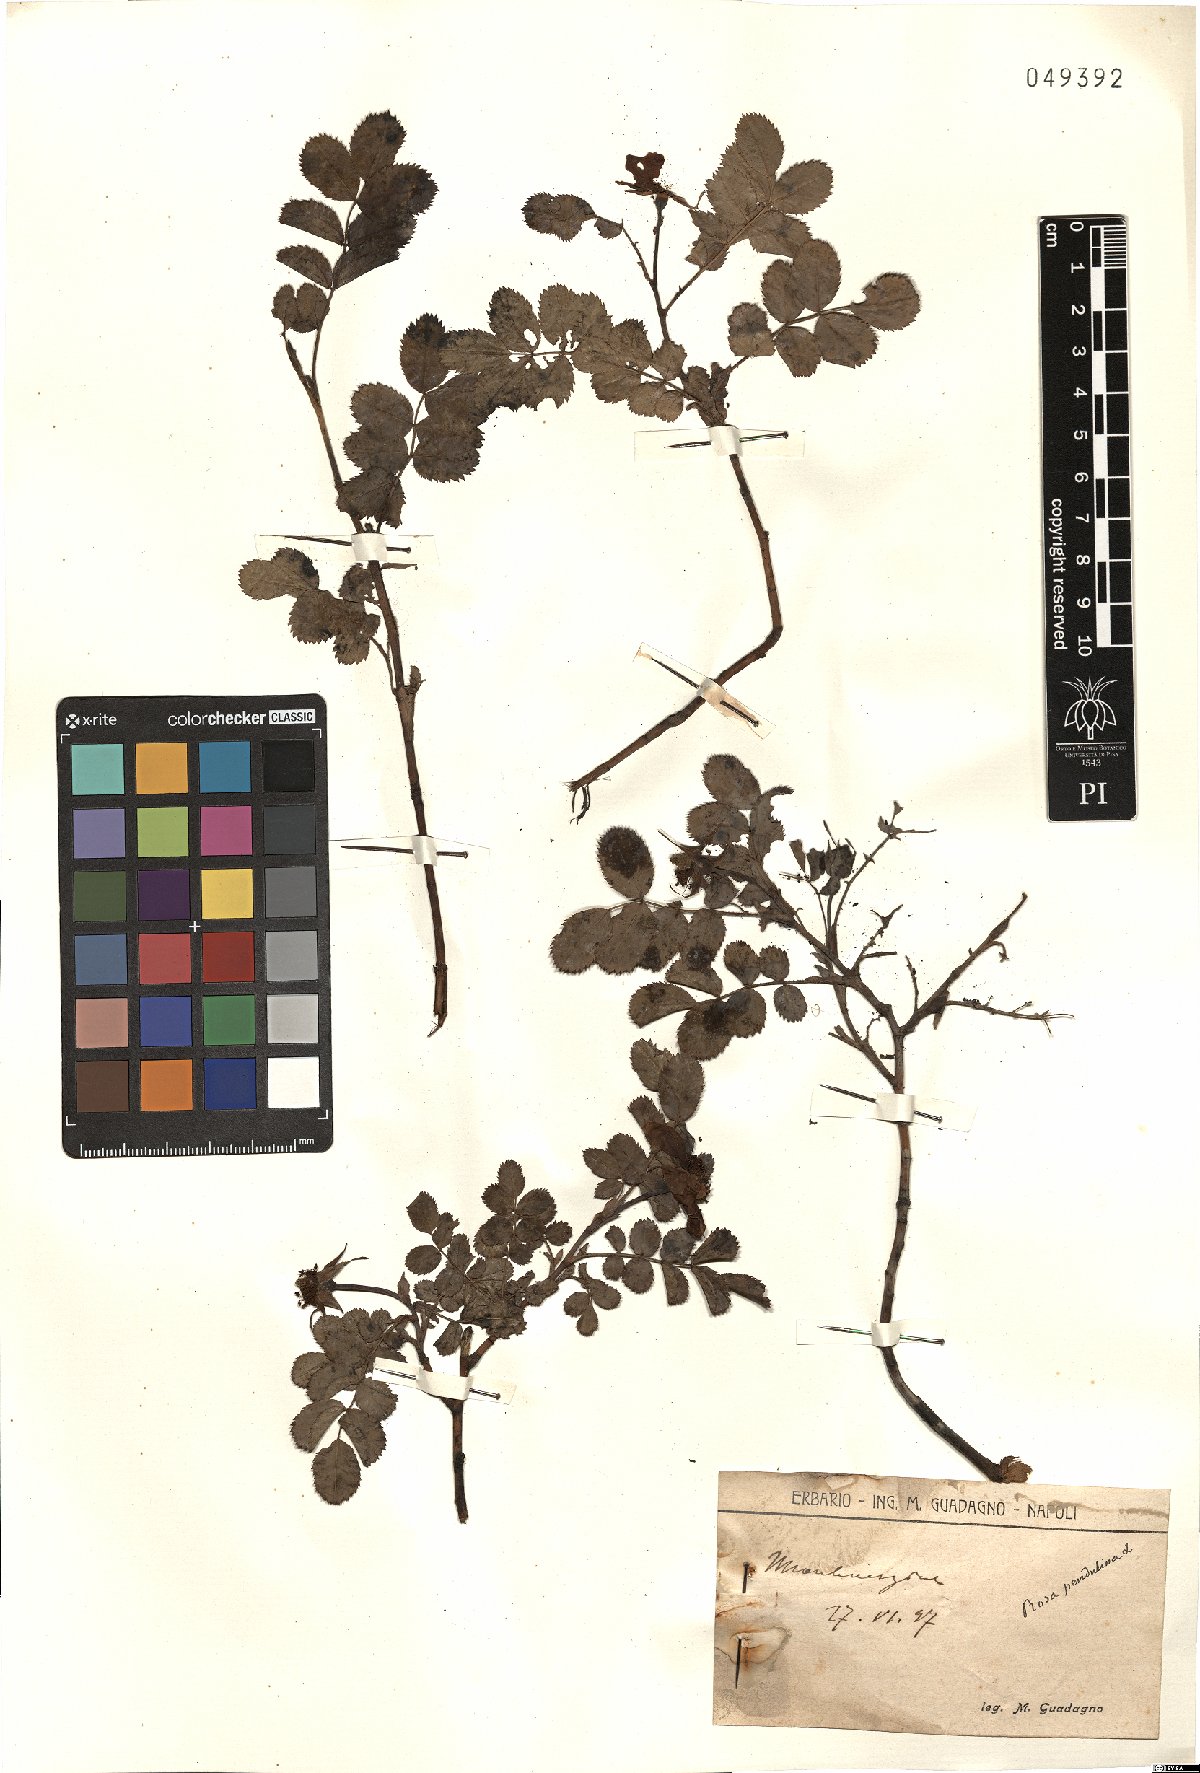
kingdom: Plantae
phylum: Tracheophyta
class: Magnoliopsida
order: Rosales
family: Rosaceae
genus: Rosa
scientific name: Rosa pendulina
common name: Alpine rose
